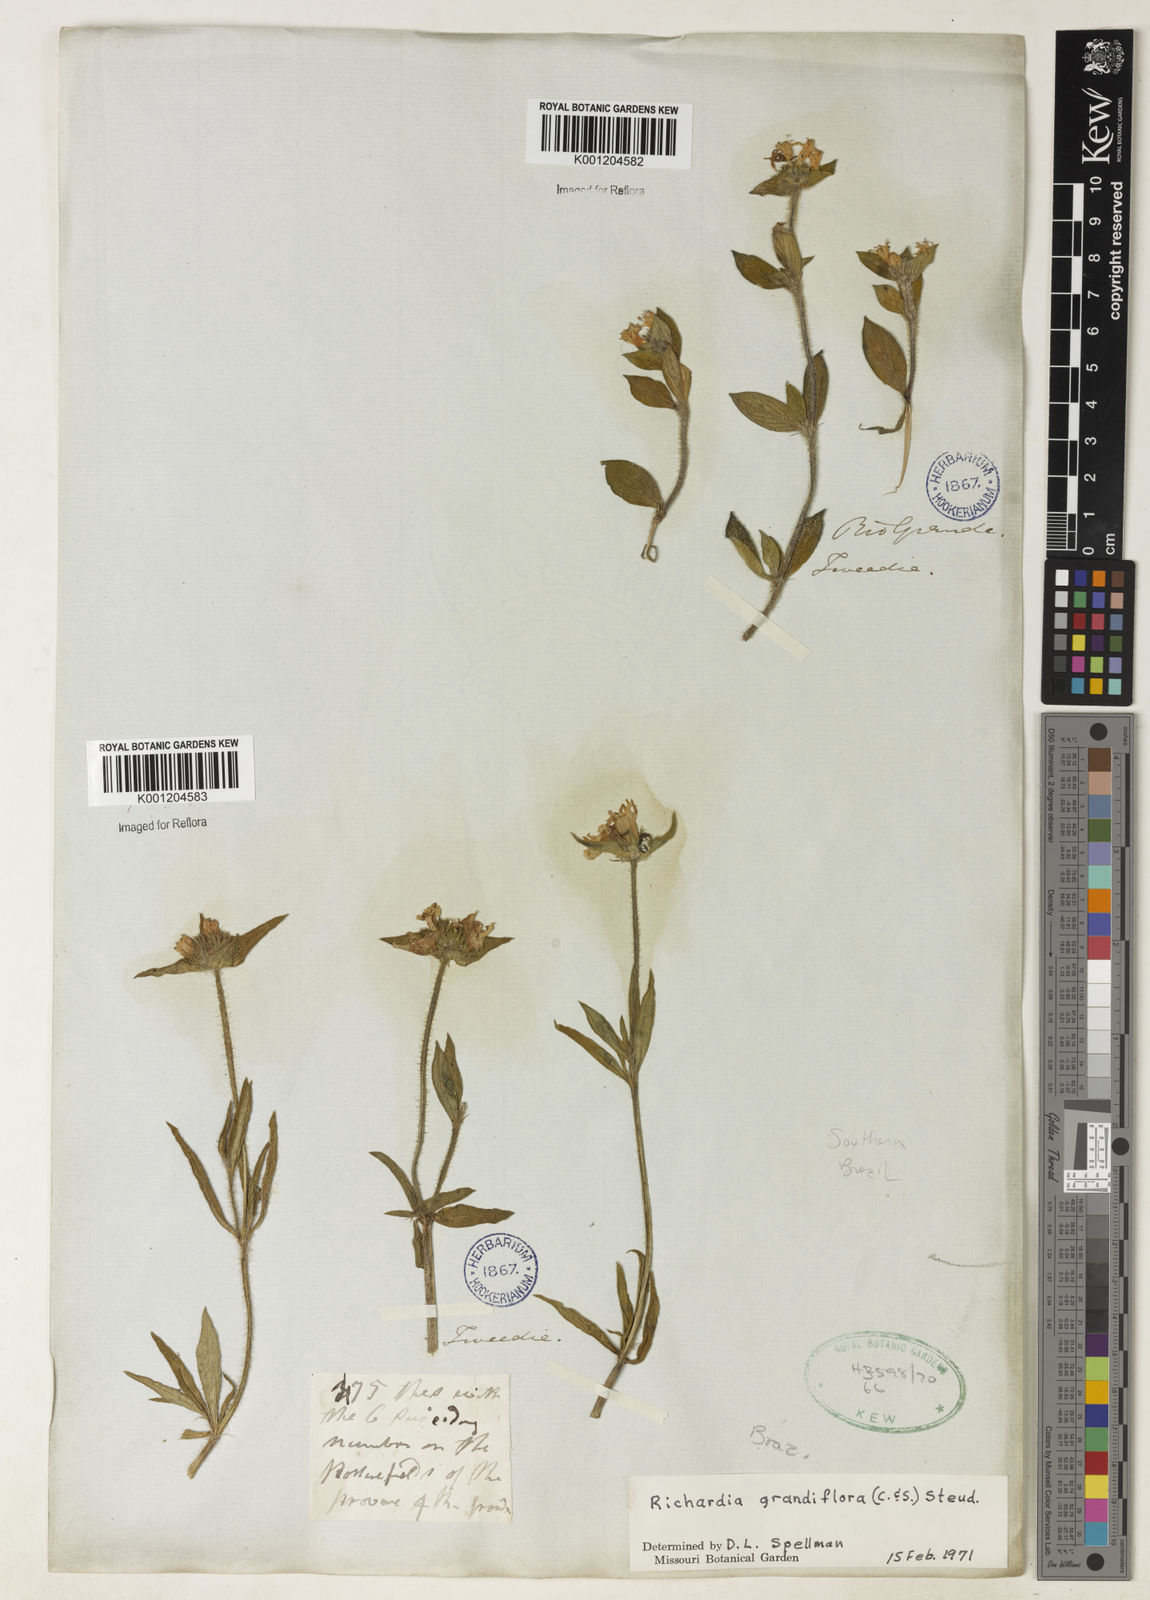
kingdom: Plantae
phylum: Tracheophyta
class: Magnoliopsida
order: Gentianales
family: Rubiaceae
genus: Richardia
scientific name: Richardia grandiflora
